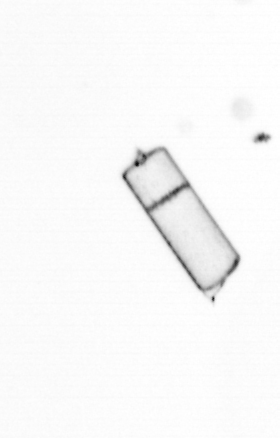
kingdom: Chromista
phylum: Ochrophyta
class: Bacillariophyceae
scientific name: Bacillariophyceae
